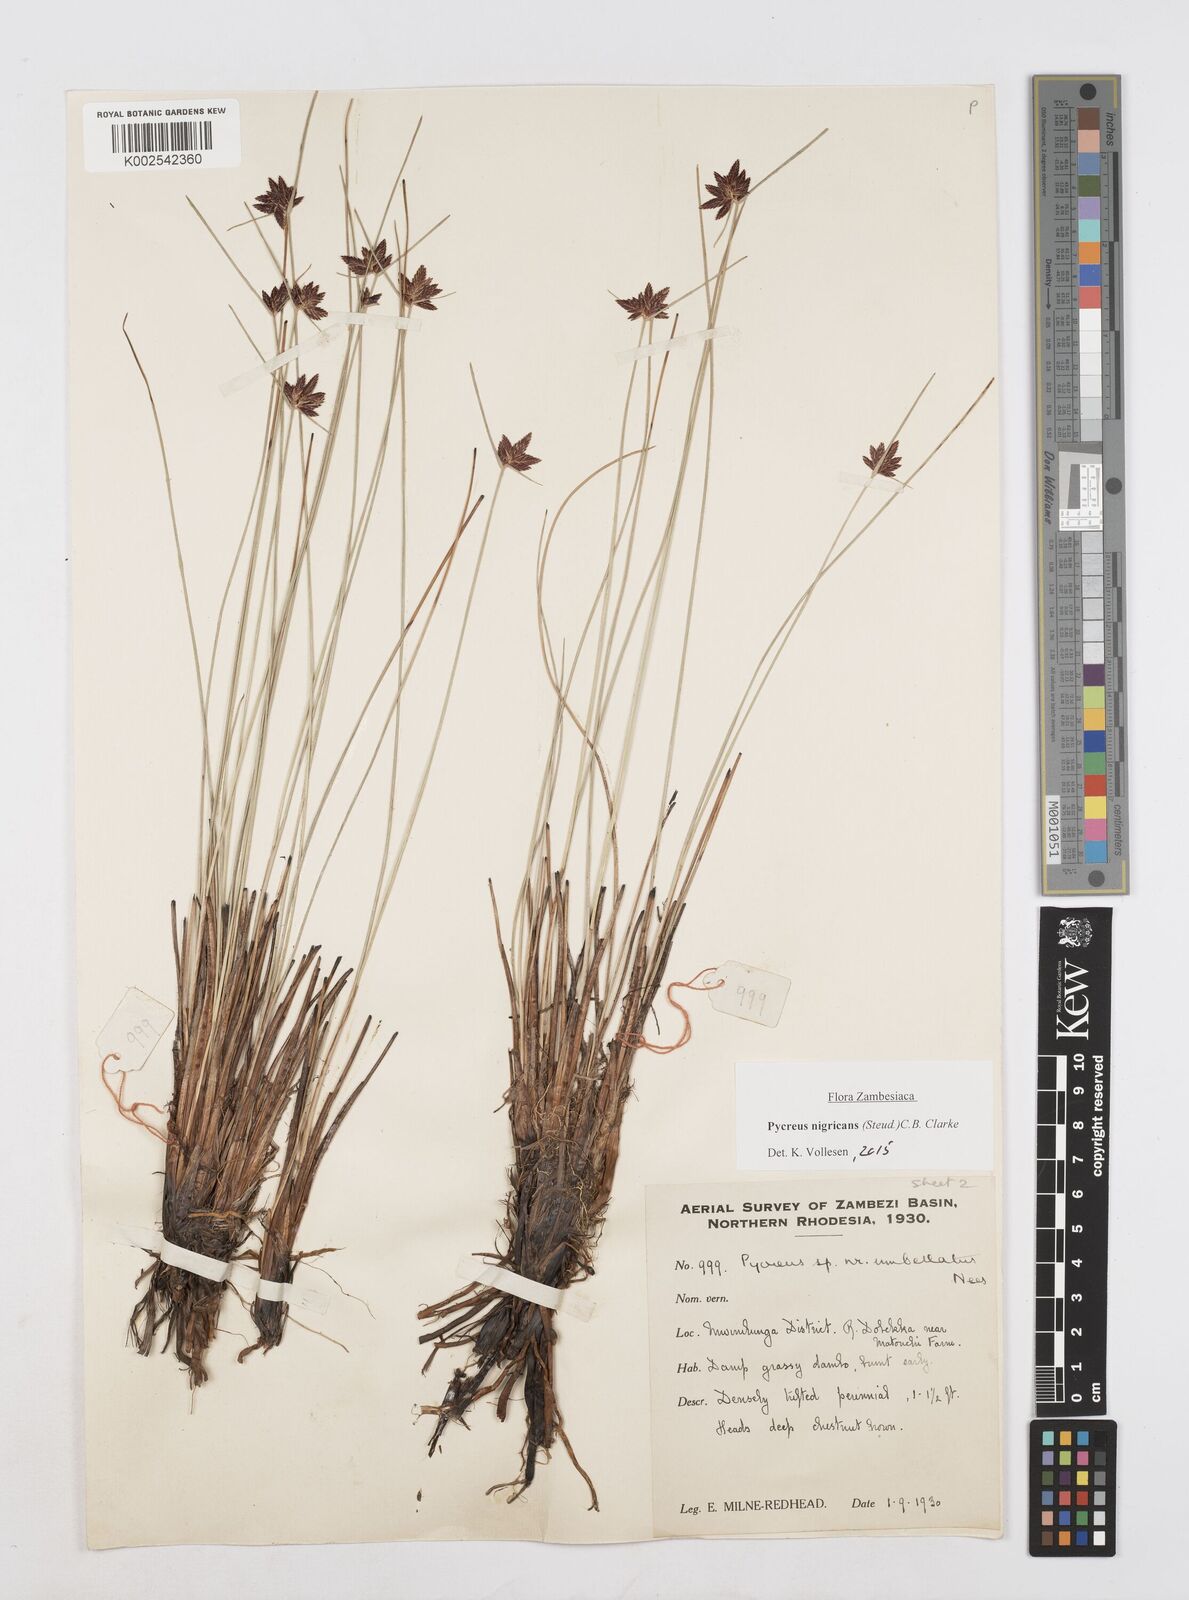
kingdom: Plantae
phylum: Tracheophyta
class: Liliopsida
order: Poales
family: Cyperaceae
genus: Cyperus
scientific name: Cyperus nigricans
